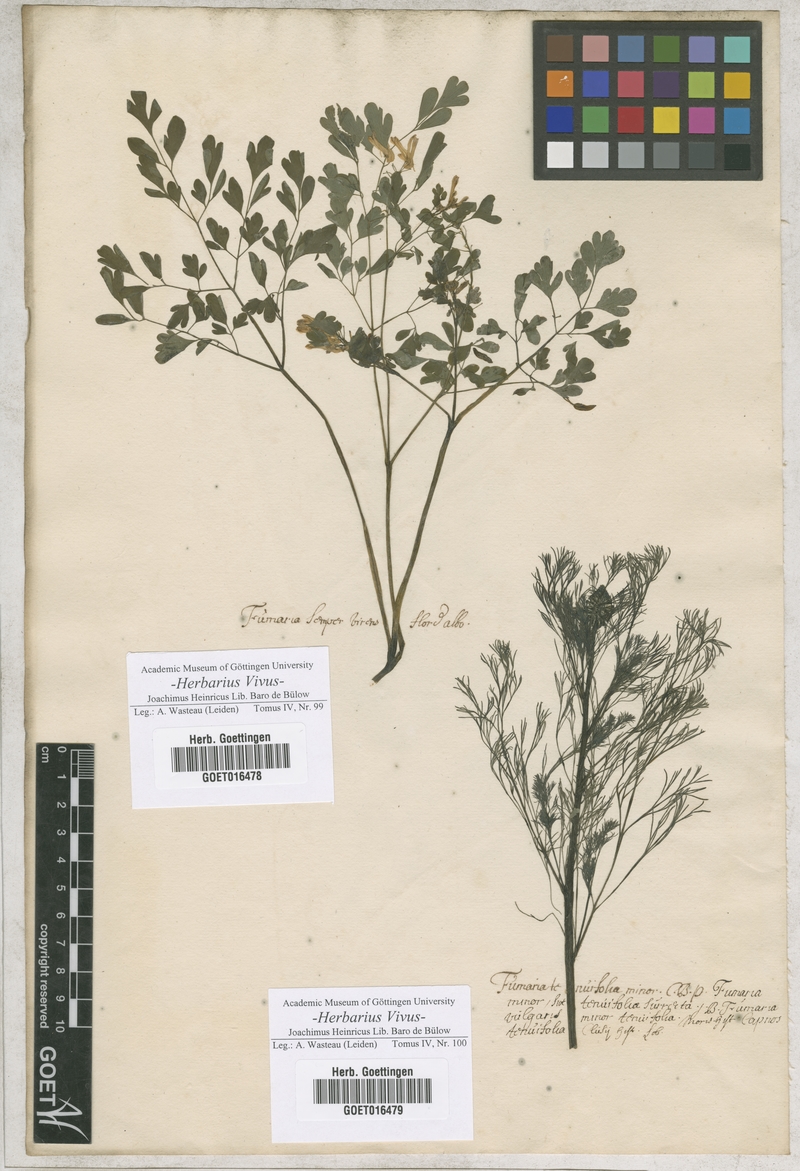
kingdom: Plantae
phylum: Tracheophyta
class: Magnoliopsida
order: Ranunculales
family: Papaveraceae
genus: Fumaria
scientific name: Fumaria
